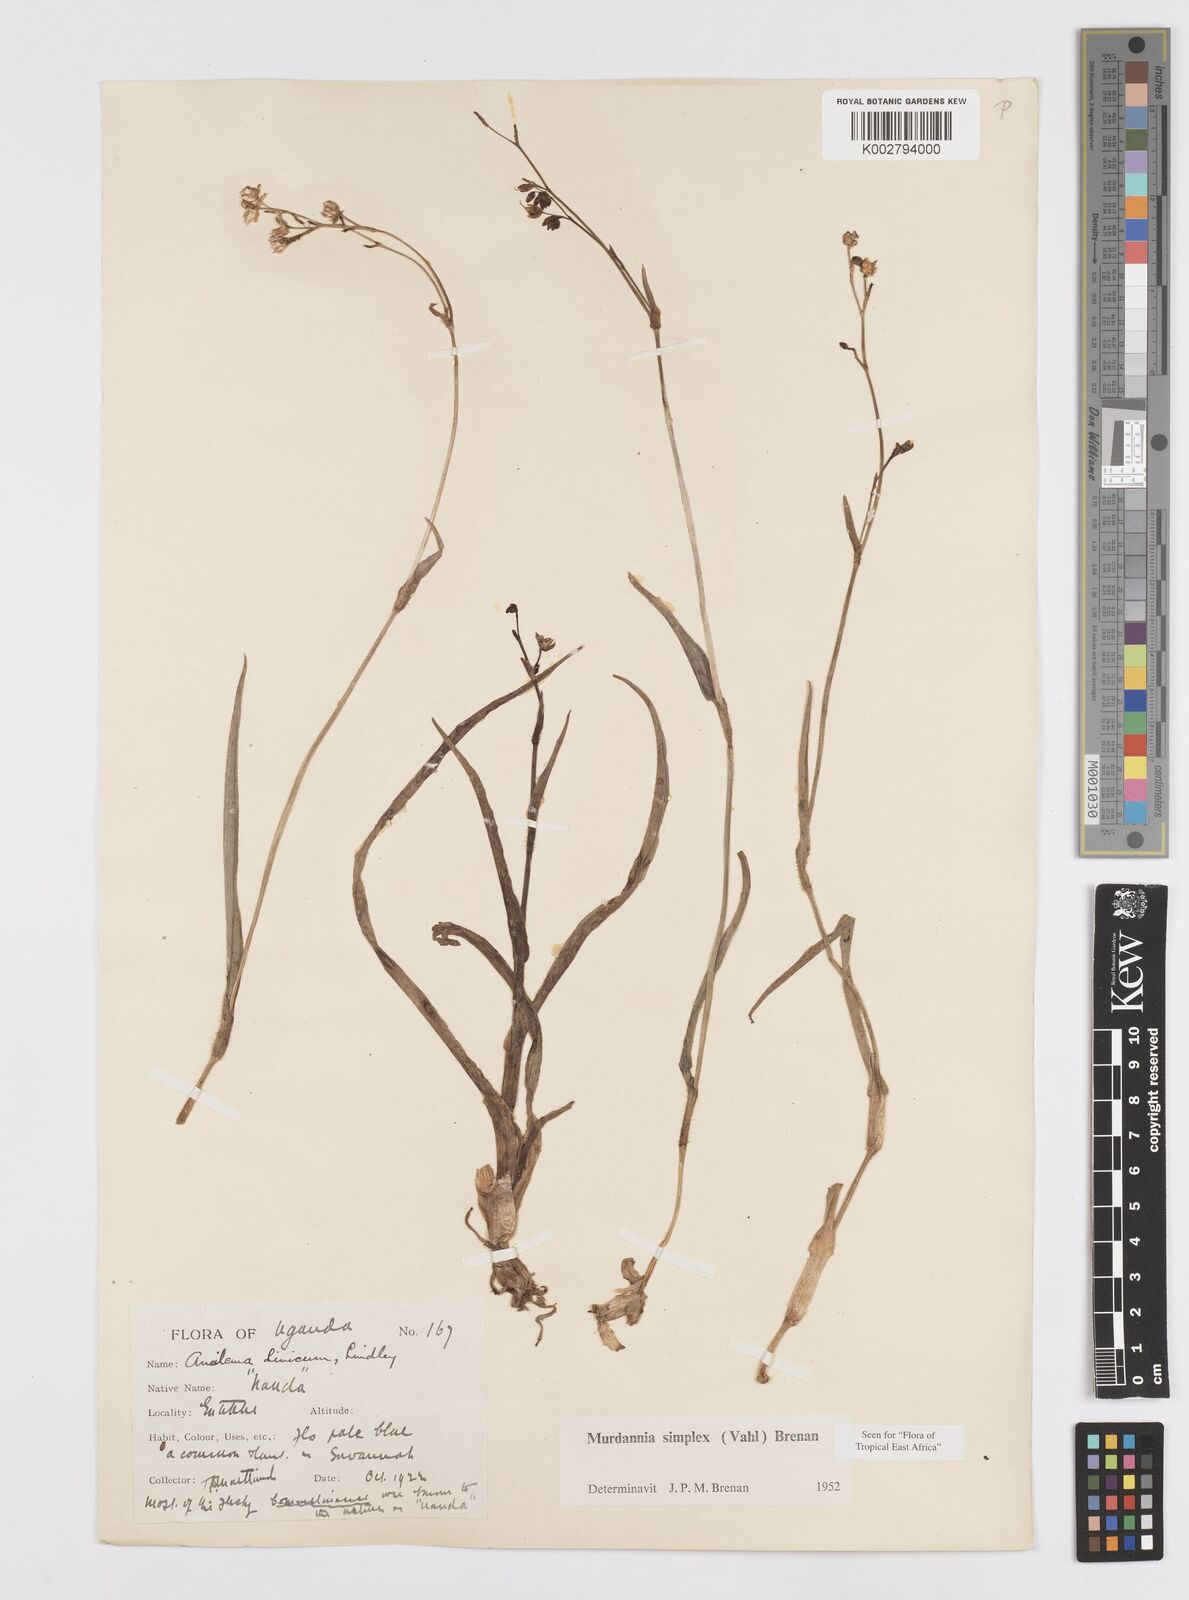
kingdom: Plantae
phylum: Tracheophyta
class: Liliopsida
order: Commelinales
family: Commelinaceae
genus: Murdannia
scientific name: Murdannia simplex
